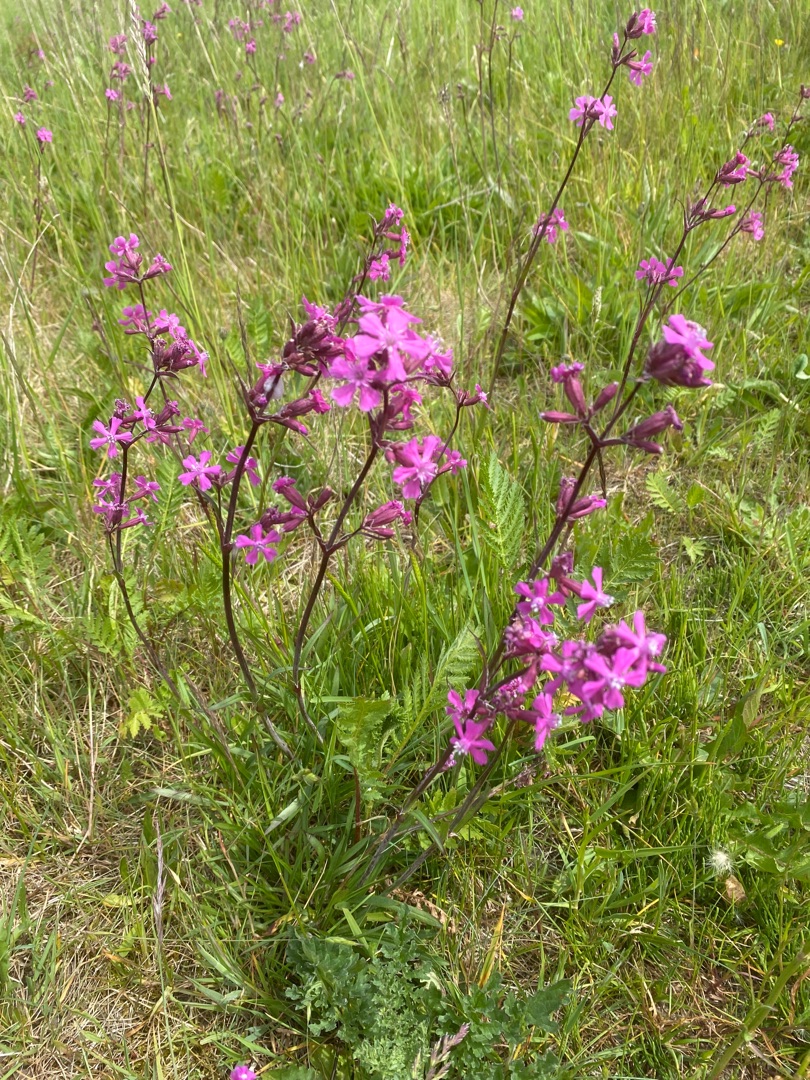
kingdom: Plantae
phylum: Tracheophyta
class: Magnoliopsida
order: Caryophyllales
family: Caryophyllaceae
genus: Viscaria
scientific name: Viscaria vulgaris
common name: Tjærenellike
